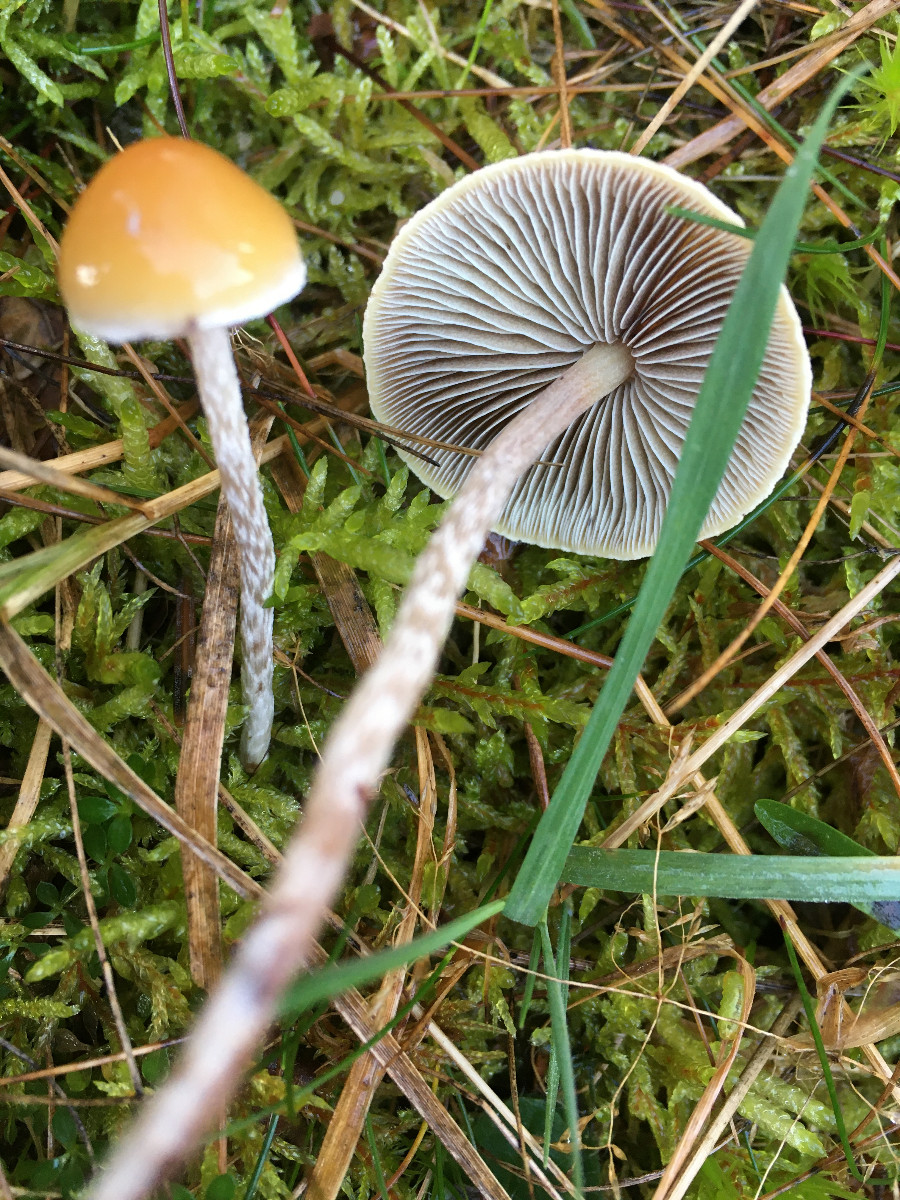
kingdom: Fungi
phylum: Basidiomycota
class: Agaricomycetes
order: Agaricales
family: Strophariaceae
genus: Hypholoma
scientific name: Hypholoma marginatum
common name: enlig svovlhat
